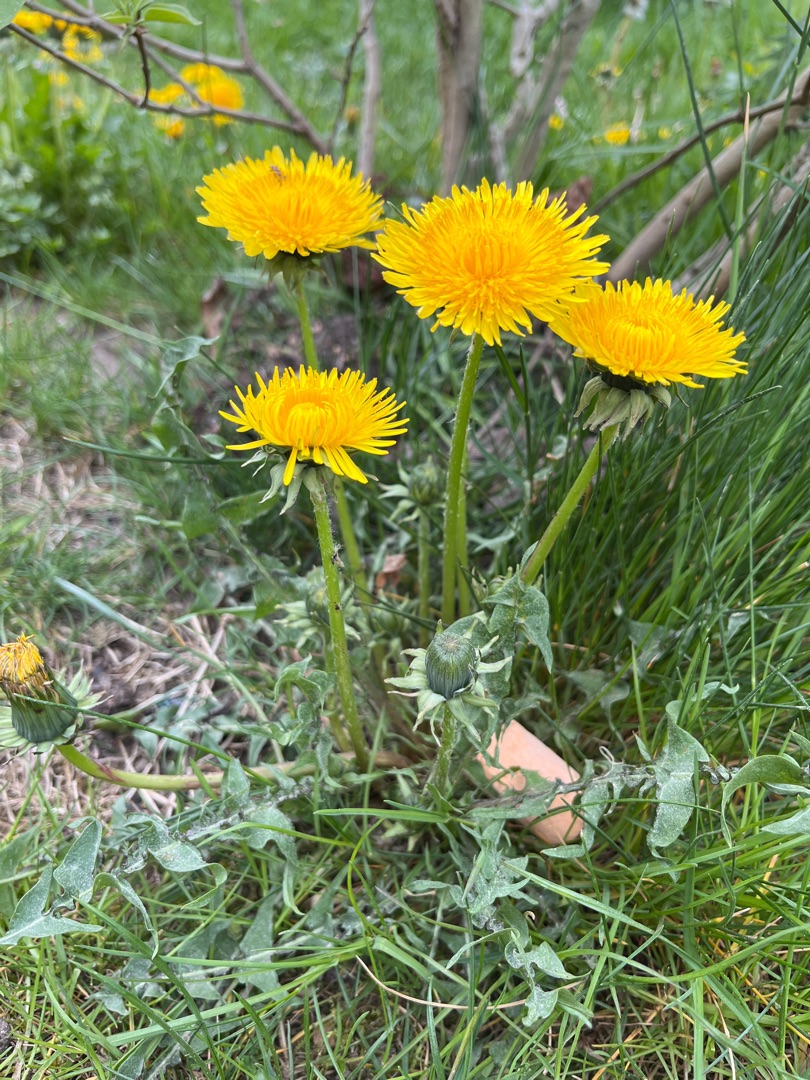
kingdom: Plantae
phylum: Tracheophyta
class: Magnoliopsida
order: Asterales
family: Asteraceae
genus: Taraxacum
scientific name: Taraxacum
